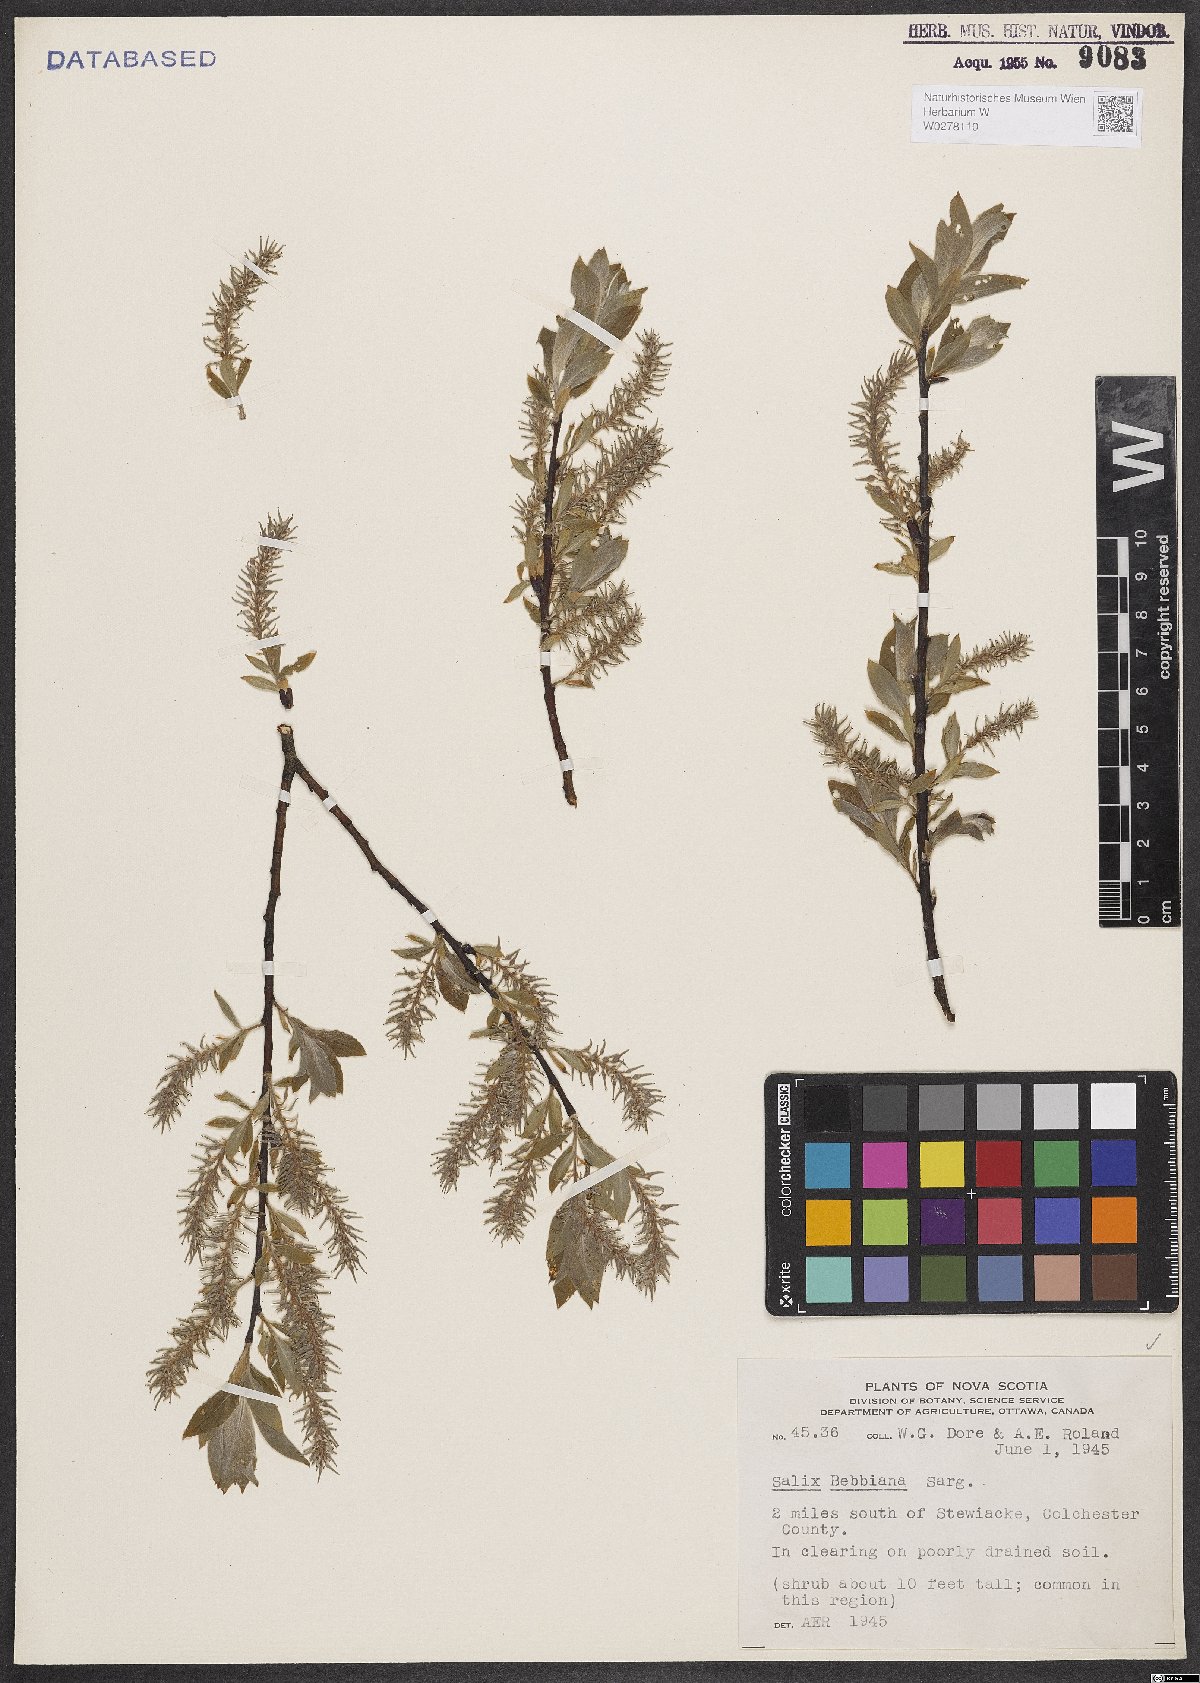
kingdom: Plantae
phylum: Tracheophyta
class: Magnoliopsida
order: Malpighiales
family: Salicaceae
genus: Salix
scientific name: Salix bebbiana
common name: Bebb's willow
